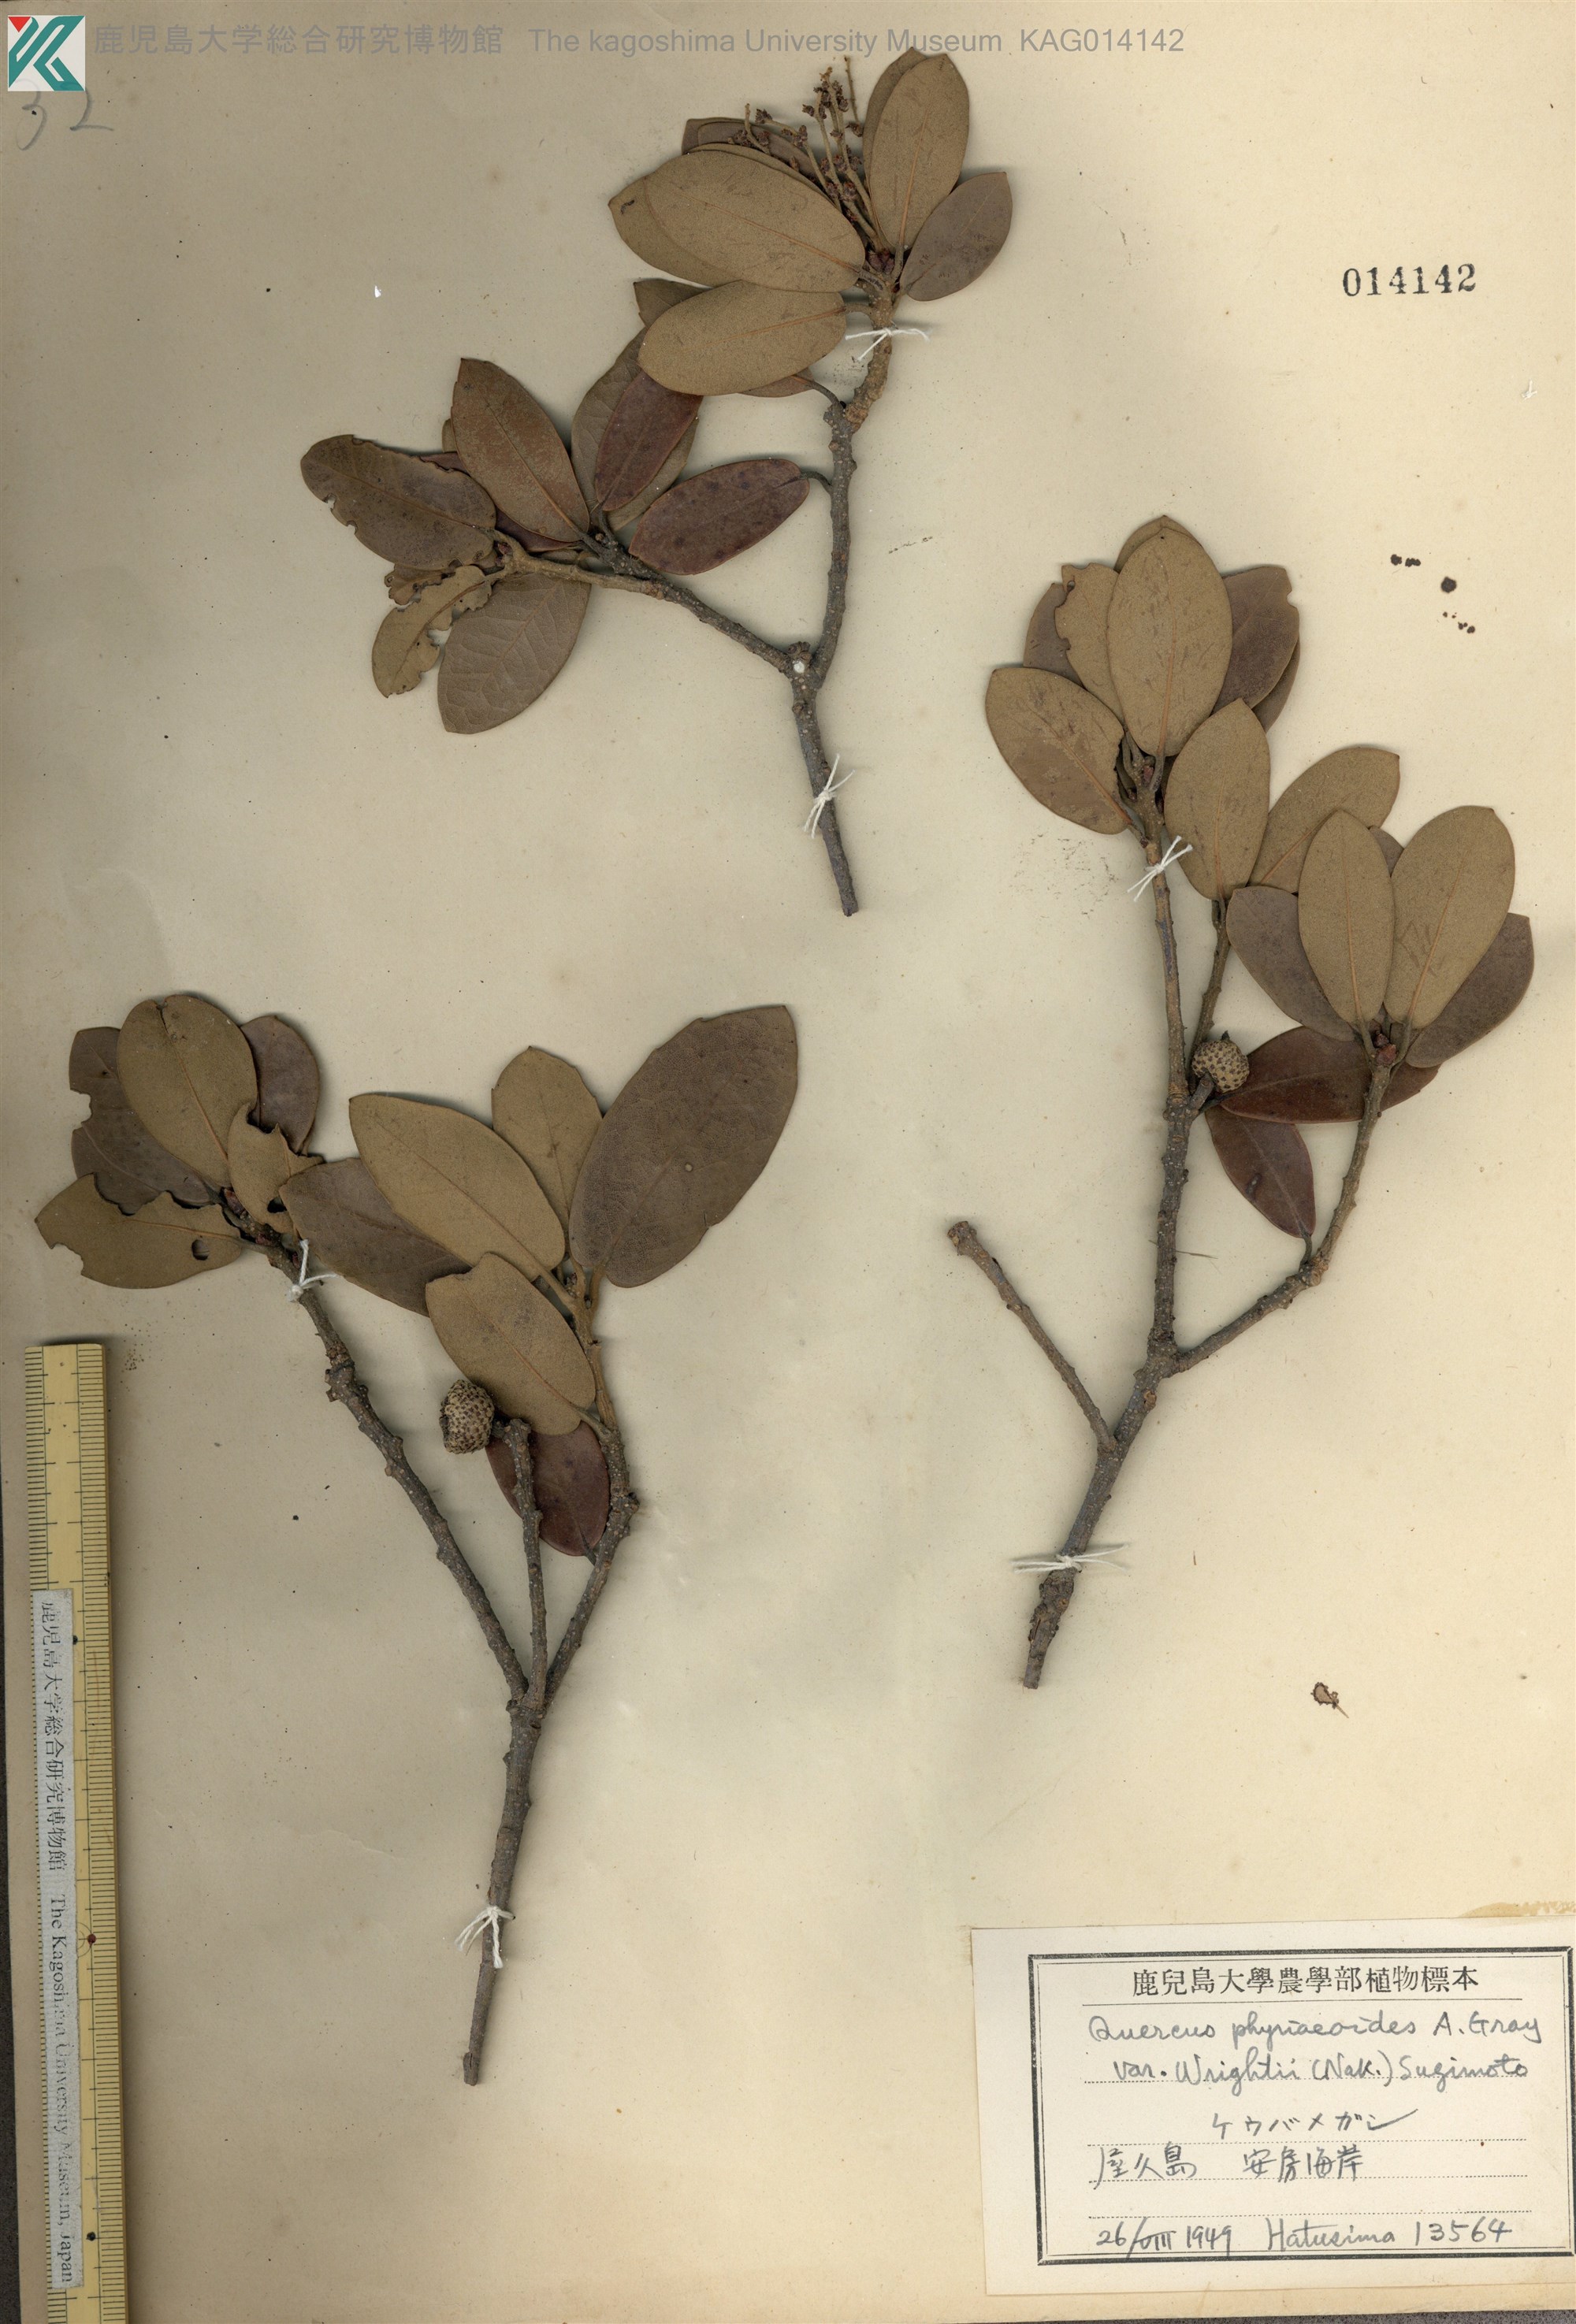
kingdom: Plantae
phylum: Tracheophyta
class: Magnoliopsida
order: Fagales
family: Fagaceae
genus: Quercus
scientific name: Quercus phillyreoides
